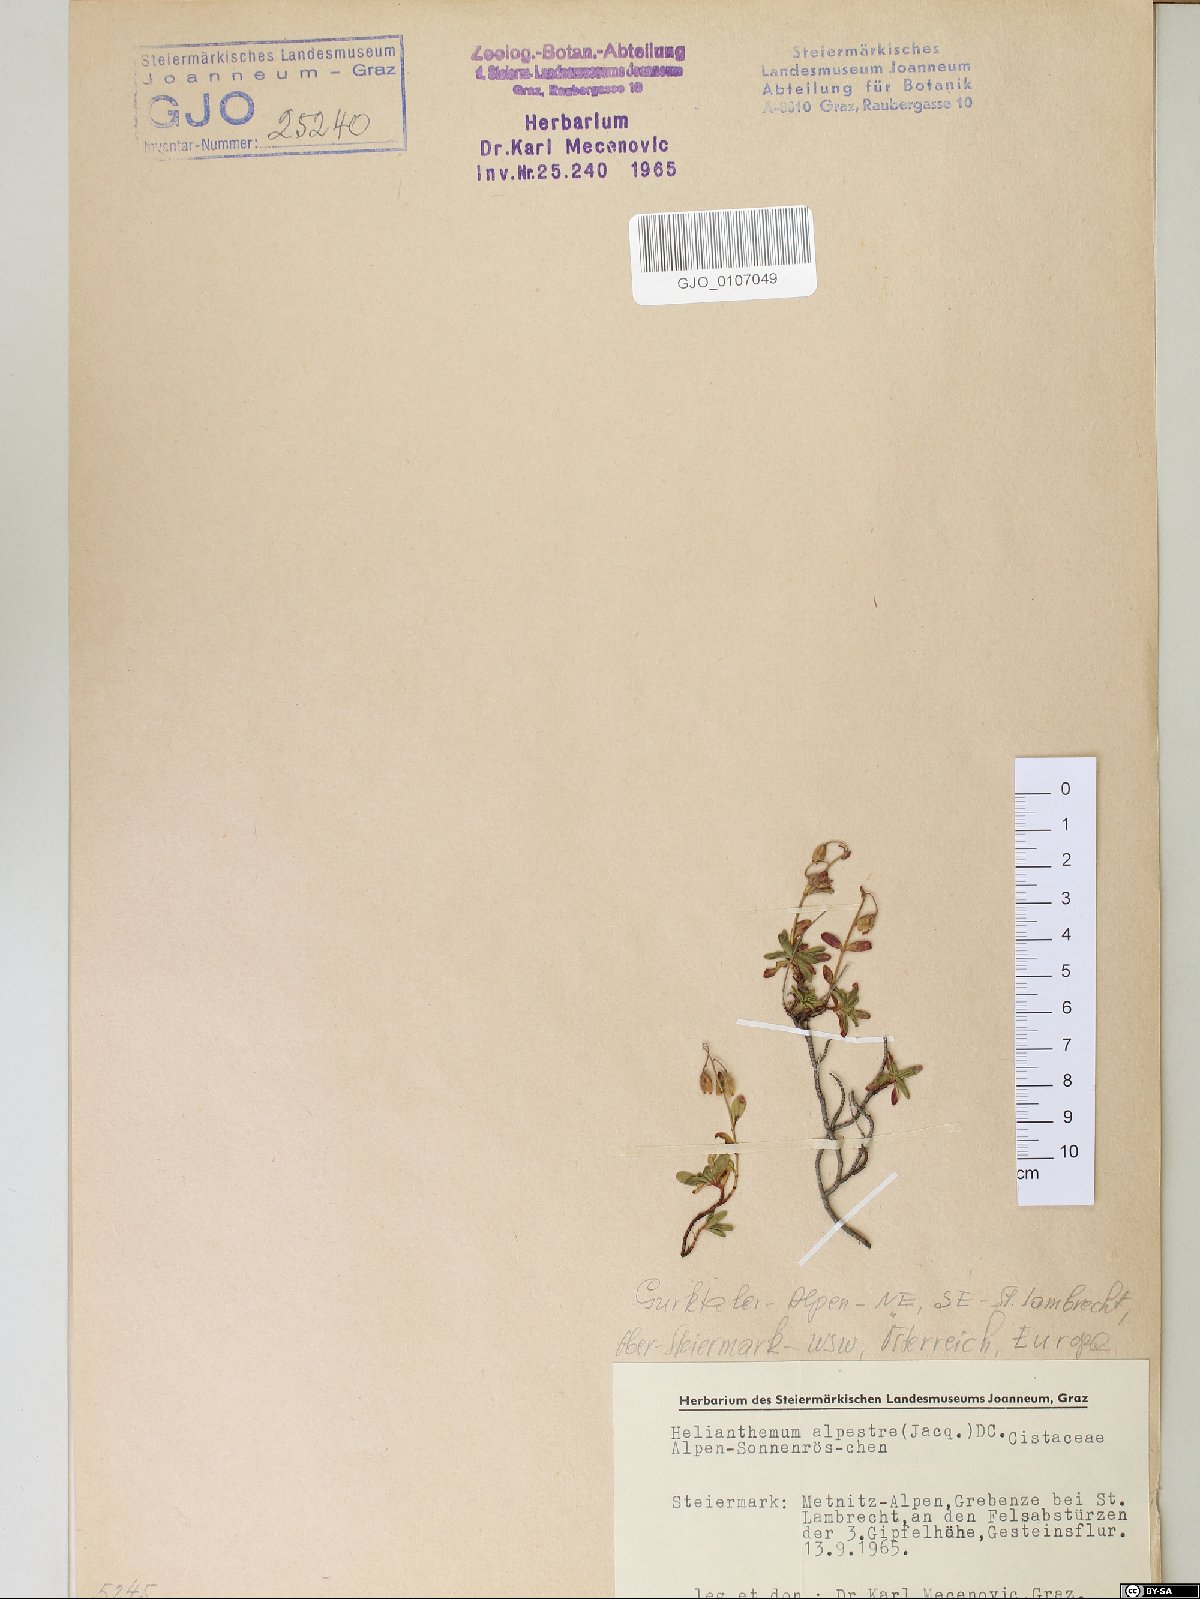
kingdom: Plantae
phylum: Tracheophyta
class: Magnoliopsida
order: Malvales
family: Cistaceae
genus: Helianthemum
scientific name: Helianthemum alpestre
